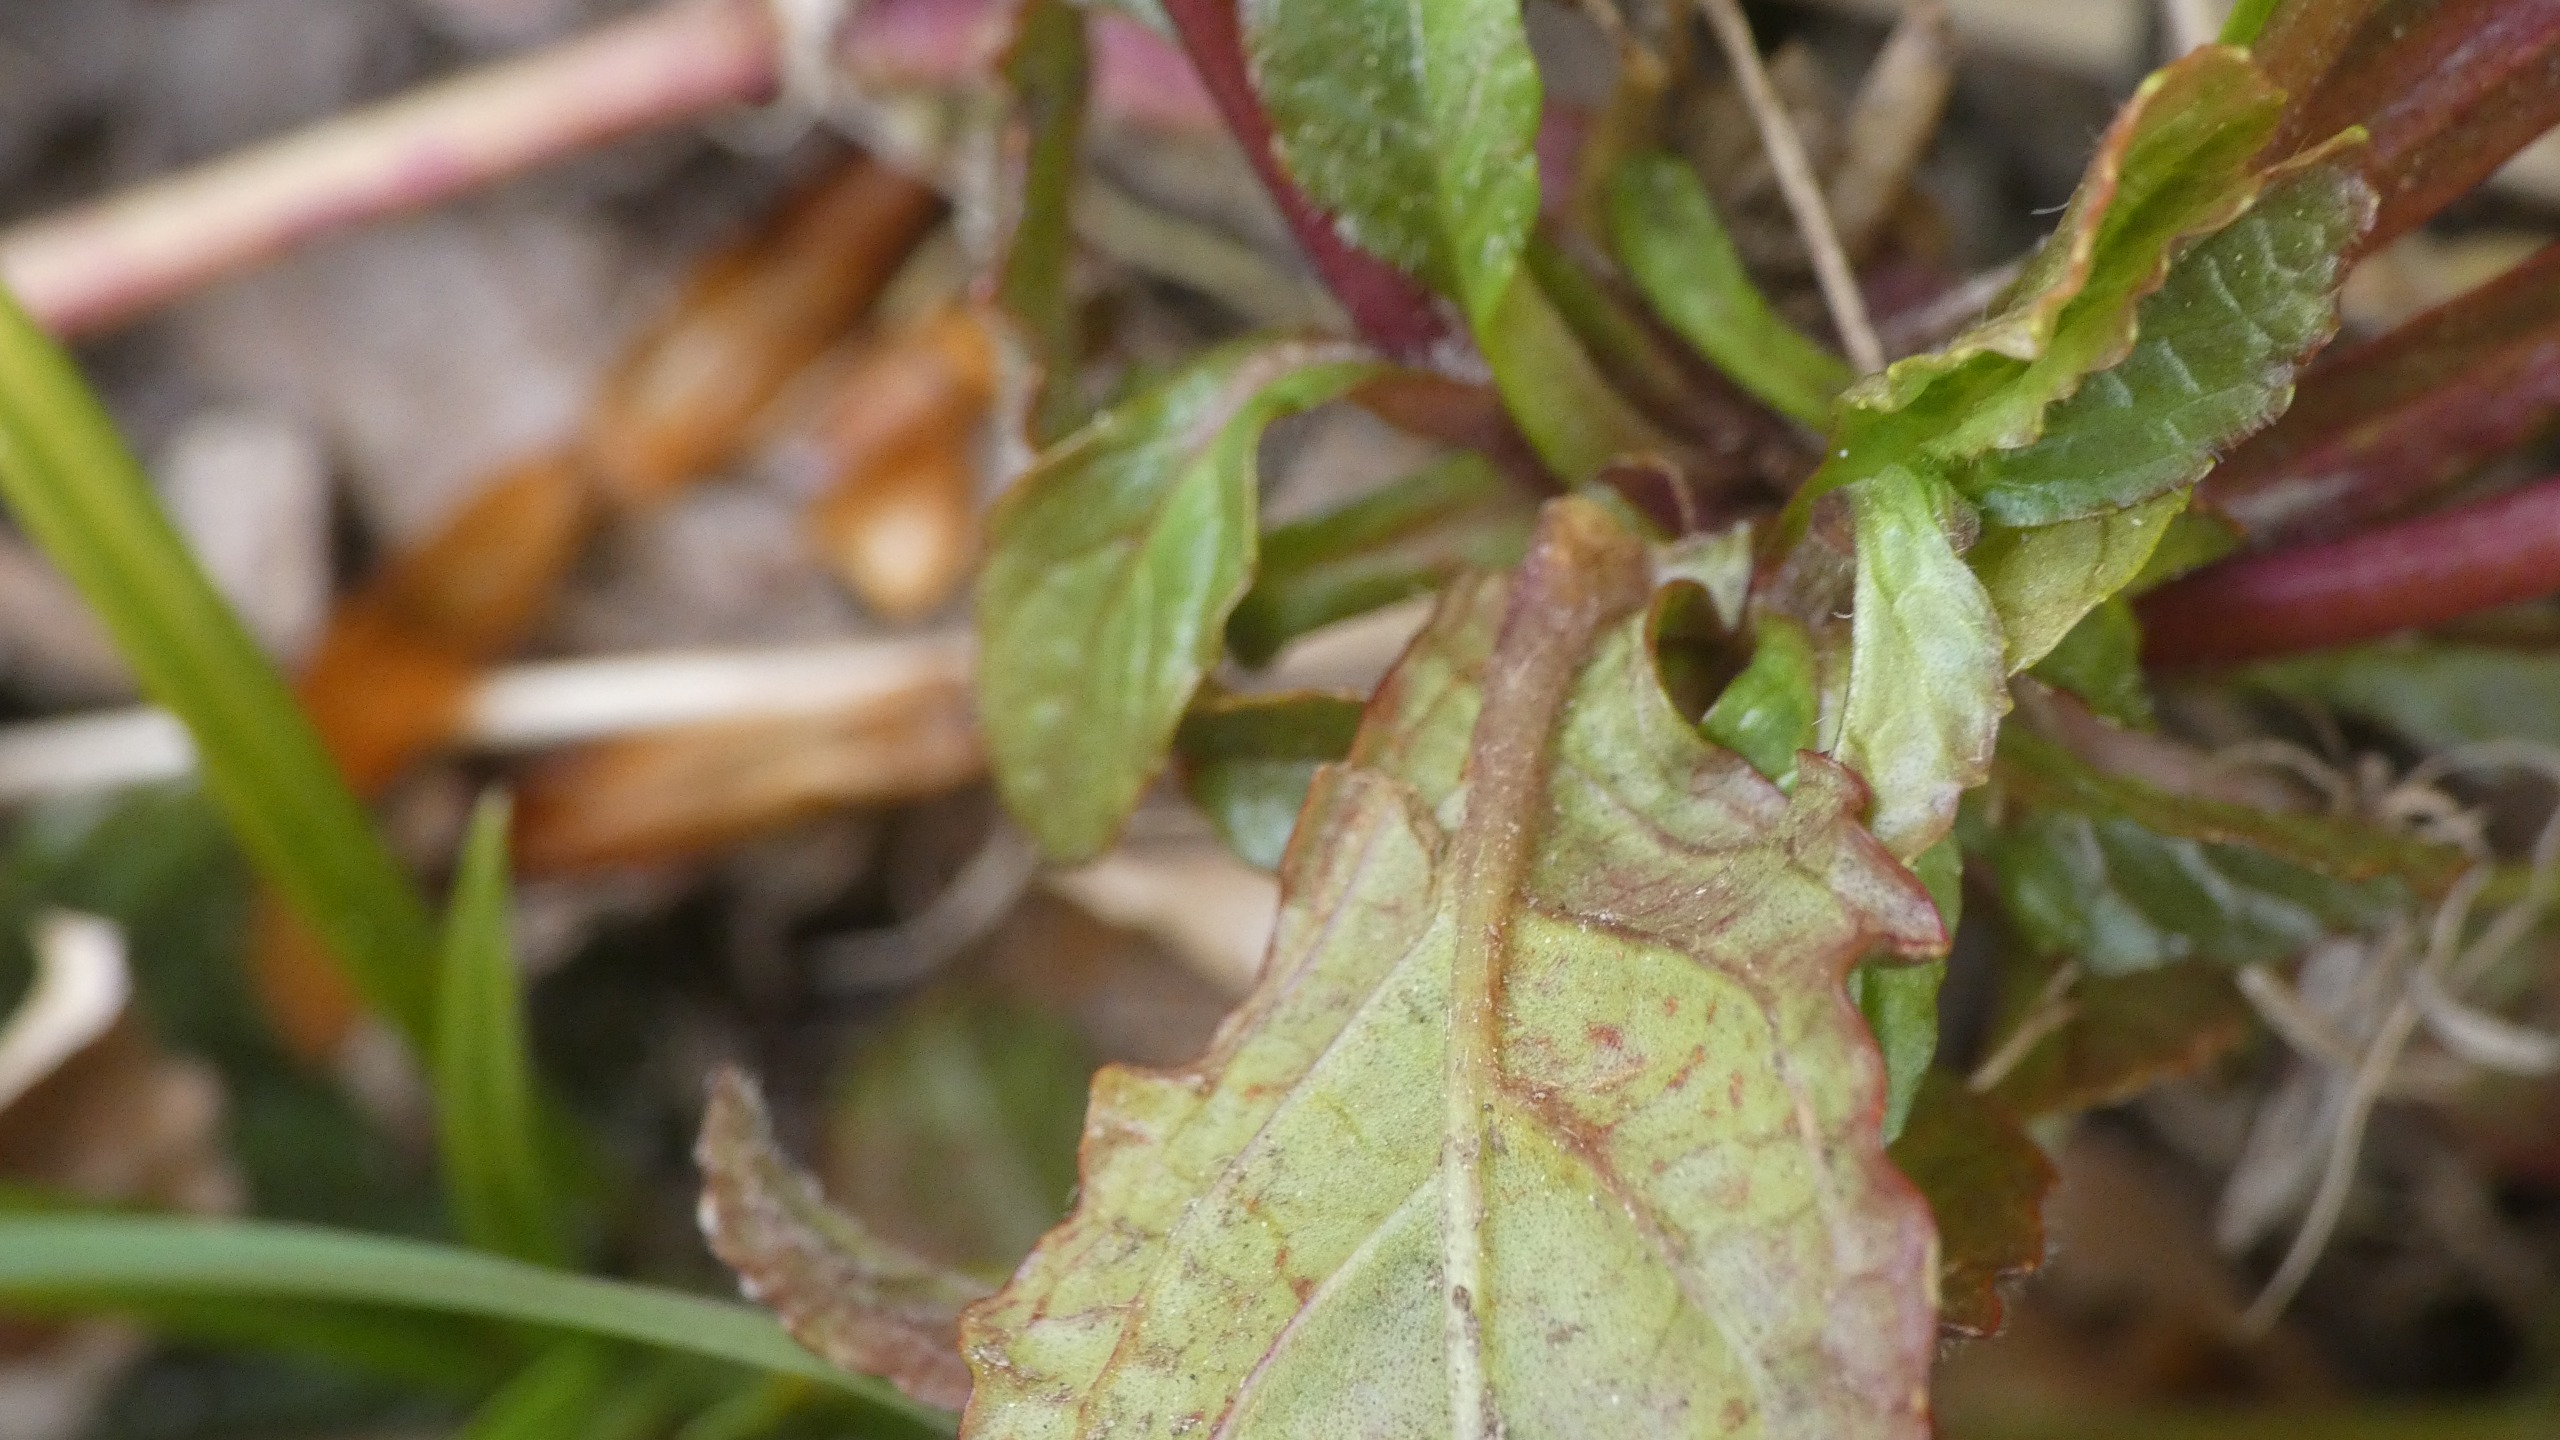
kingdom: Plantae
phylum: Tracheophyta
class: Magnoliopsida
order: Lamiales
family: Lamiaceae
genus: Ajuga
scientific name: Ajuga reptans
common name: Krybende læbeløs
